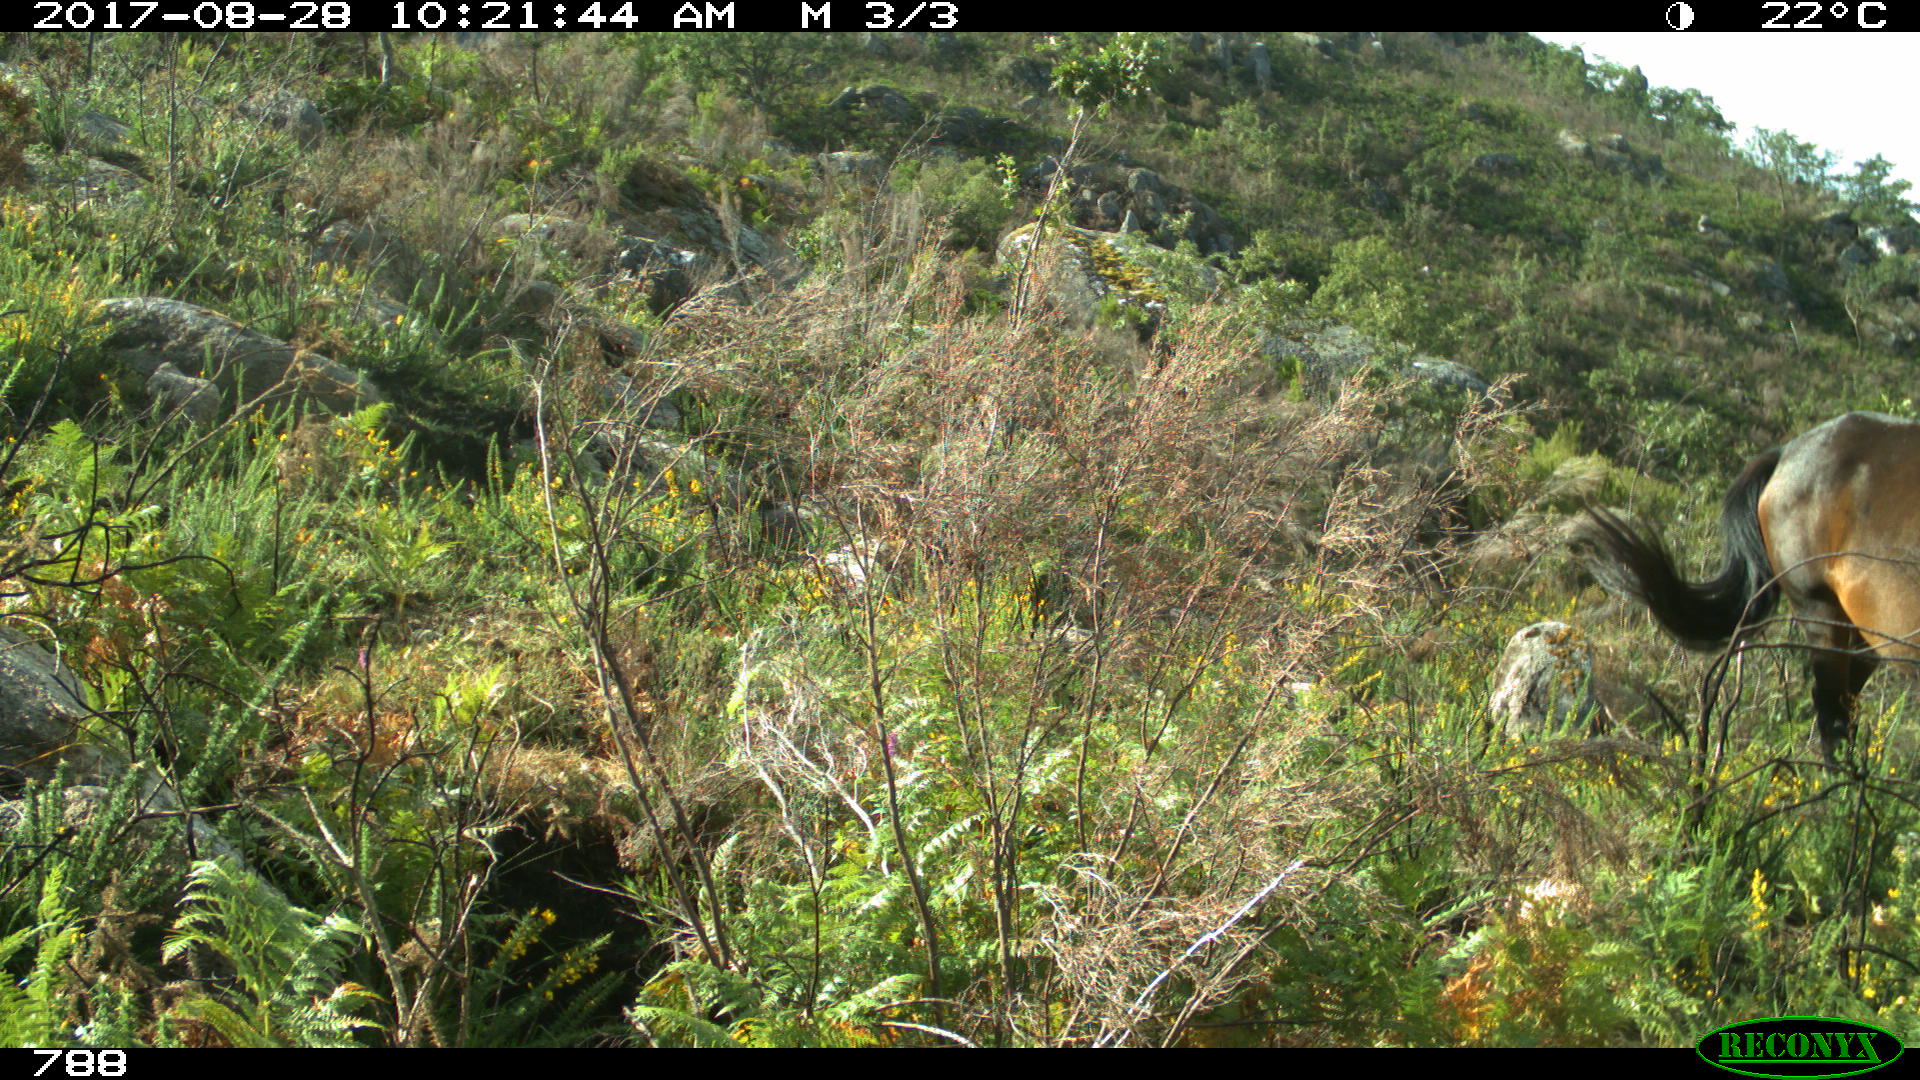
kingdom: Animalia
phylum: Chordata
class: Mammalia
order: Perissodactyla
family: Equidae
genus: Equus
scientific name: Equus caballus
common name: Horse
